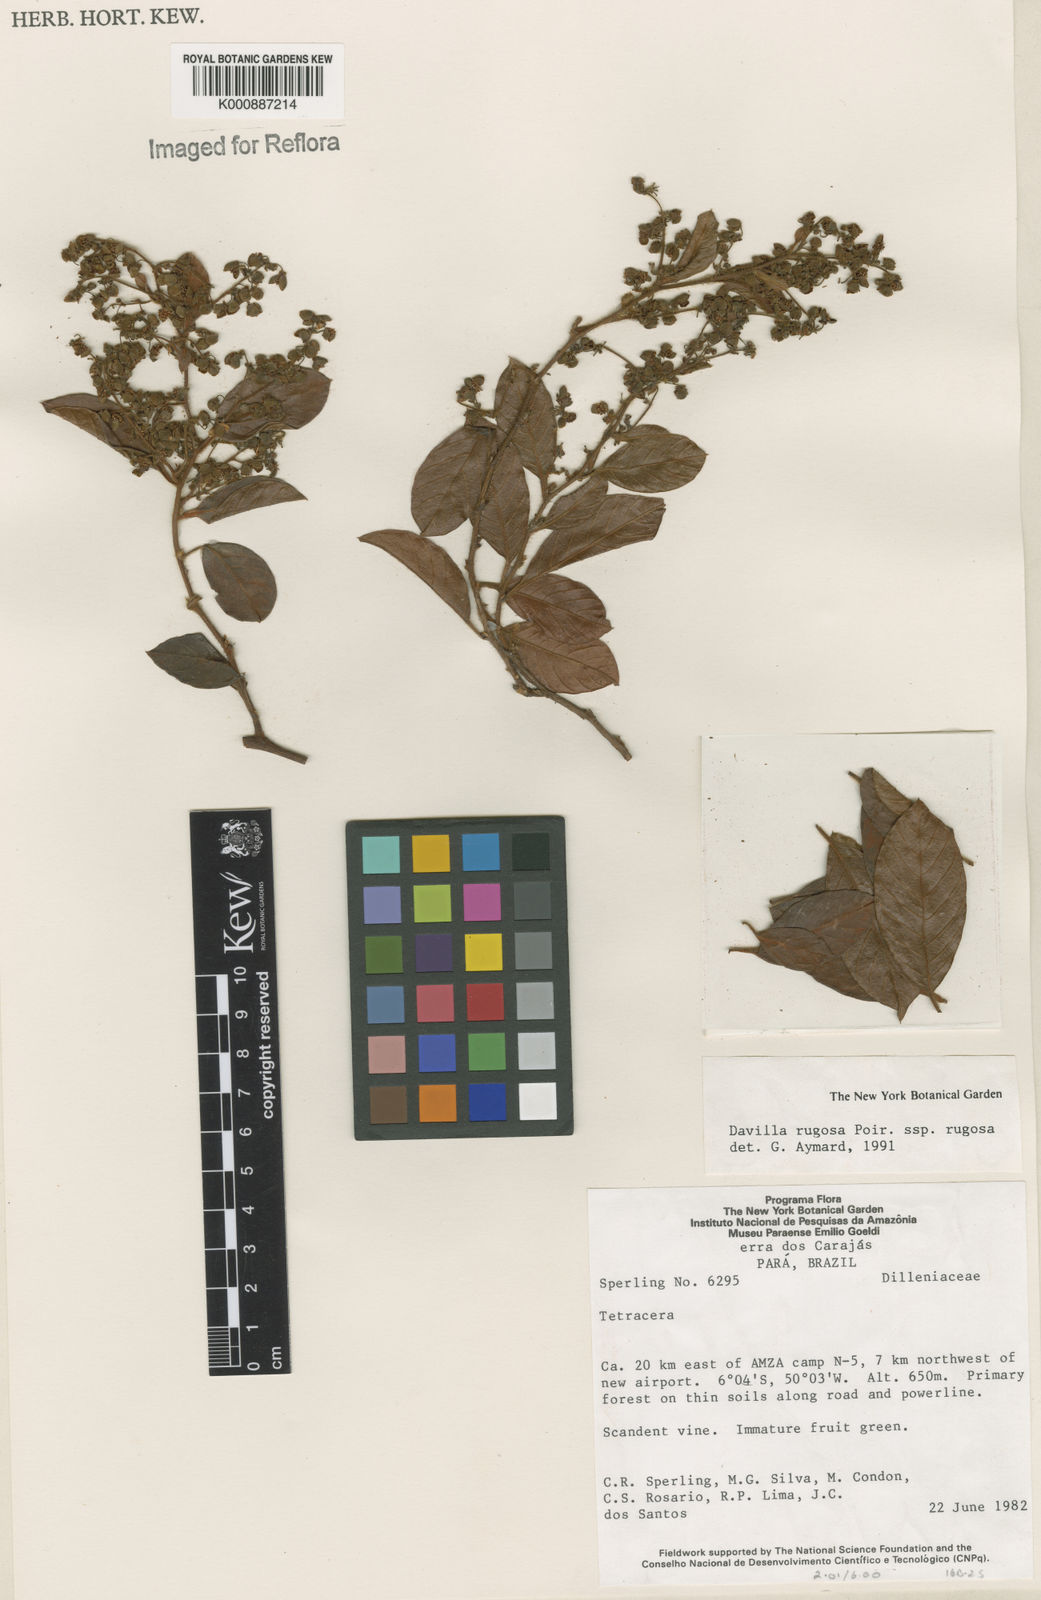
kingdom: Plantae
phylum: Tracheophyta
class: Magnoliopsida
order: Dilleniales
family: Dilleniaceae
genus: Davilla
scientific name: Davilla rugosa
